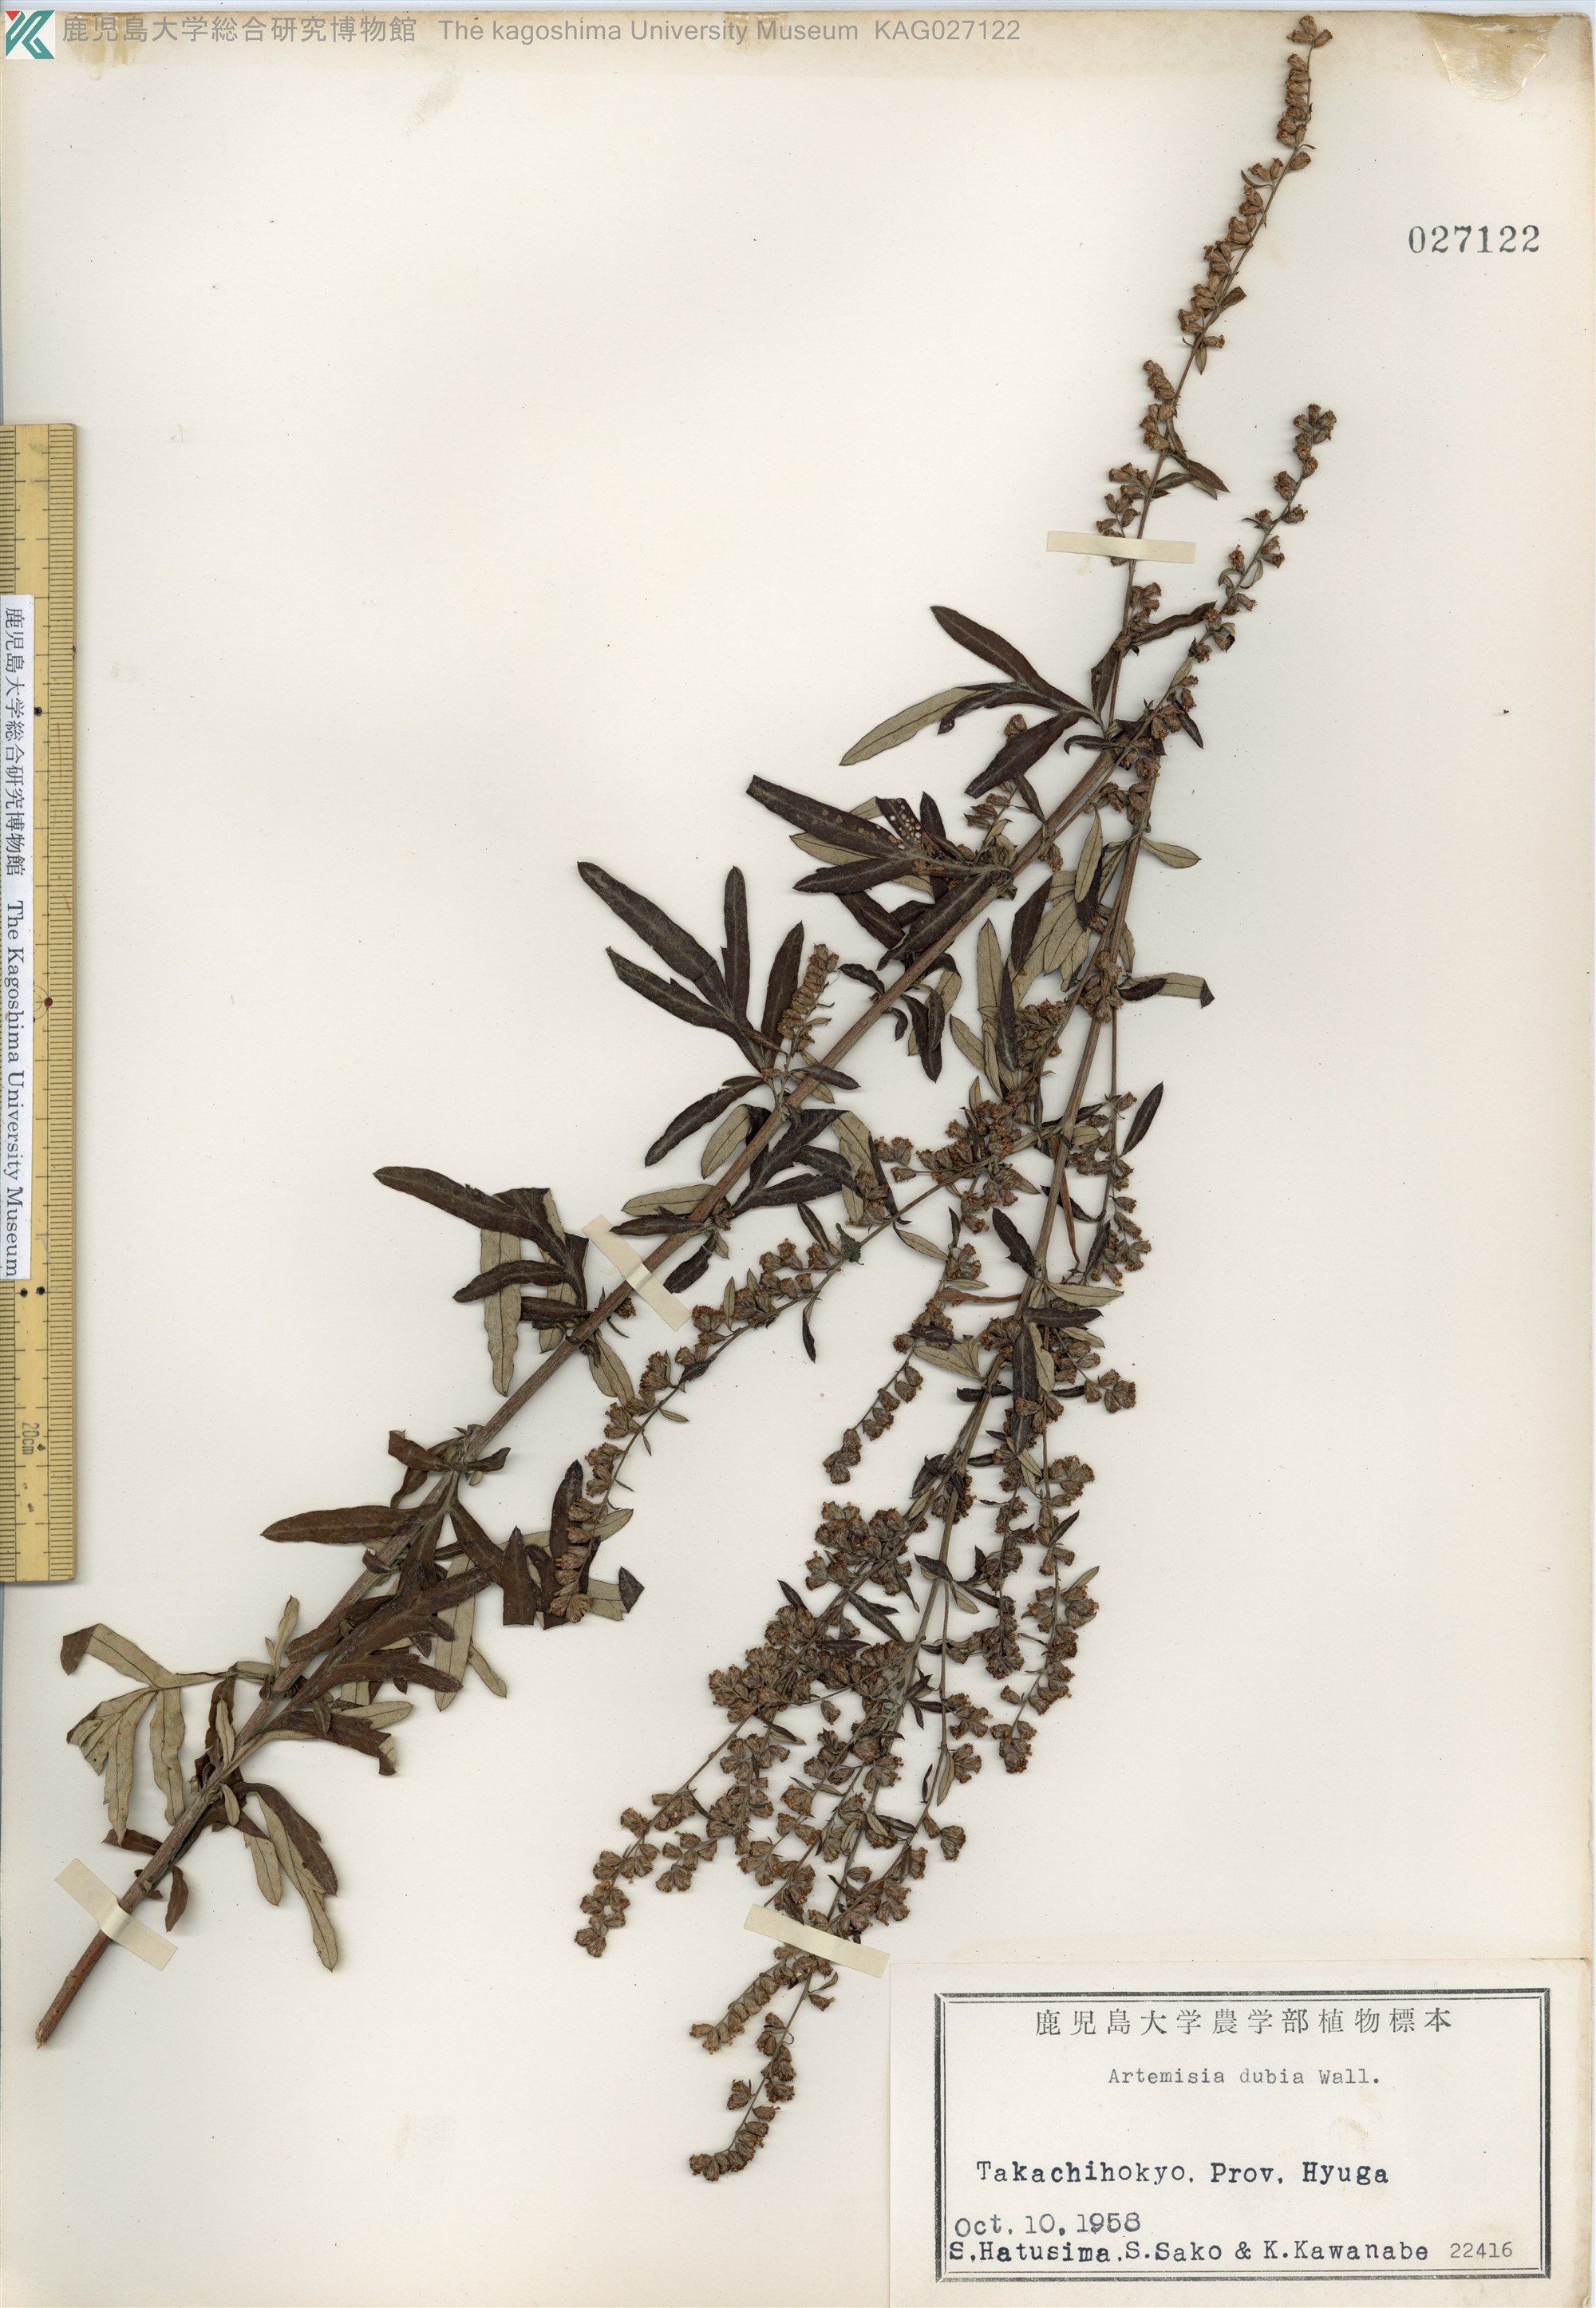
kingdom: Plantae
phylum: Tracheophyta
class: Magnoliopsida
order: Asterales
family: Asteraceae
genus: Artemisia
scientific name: Artemisia indica
